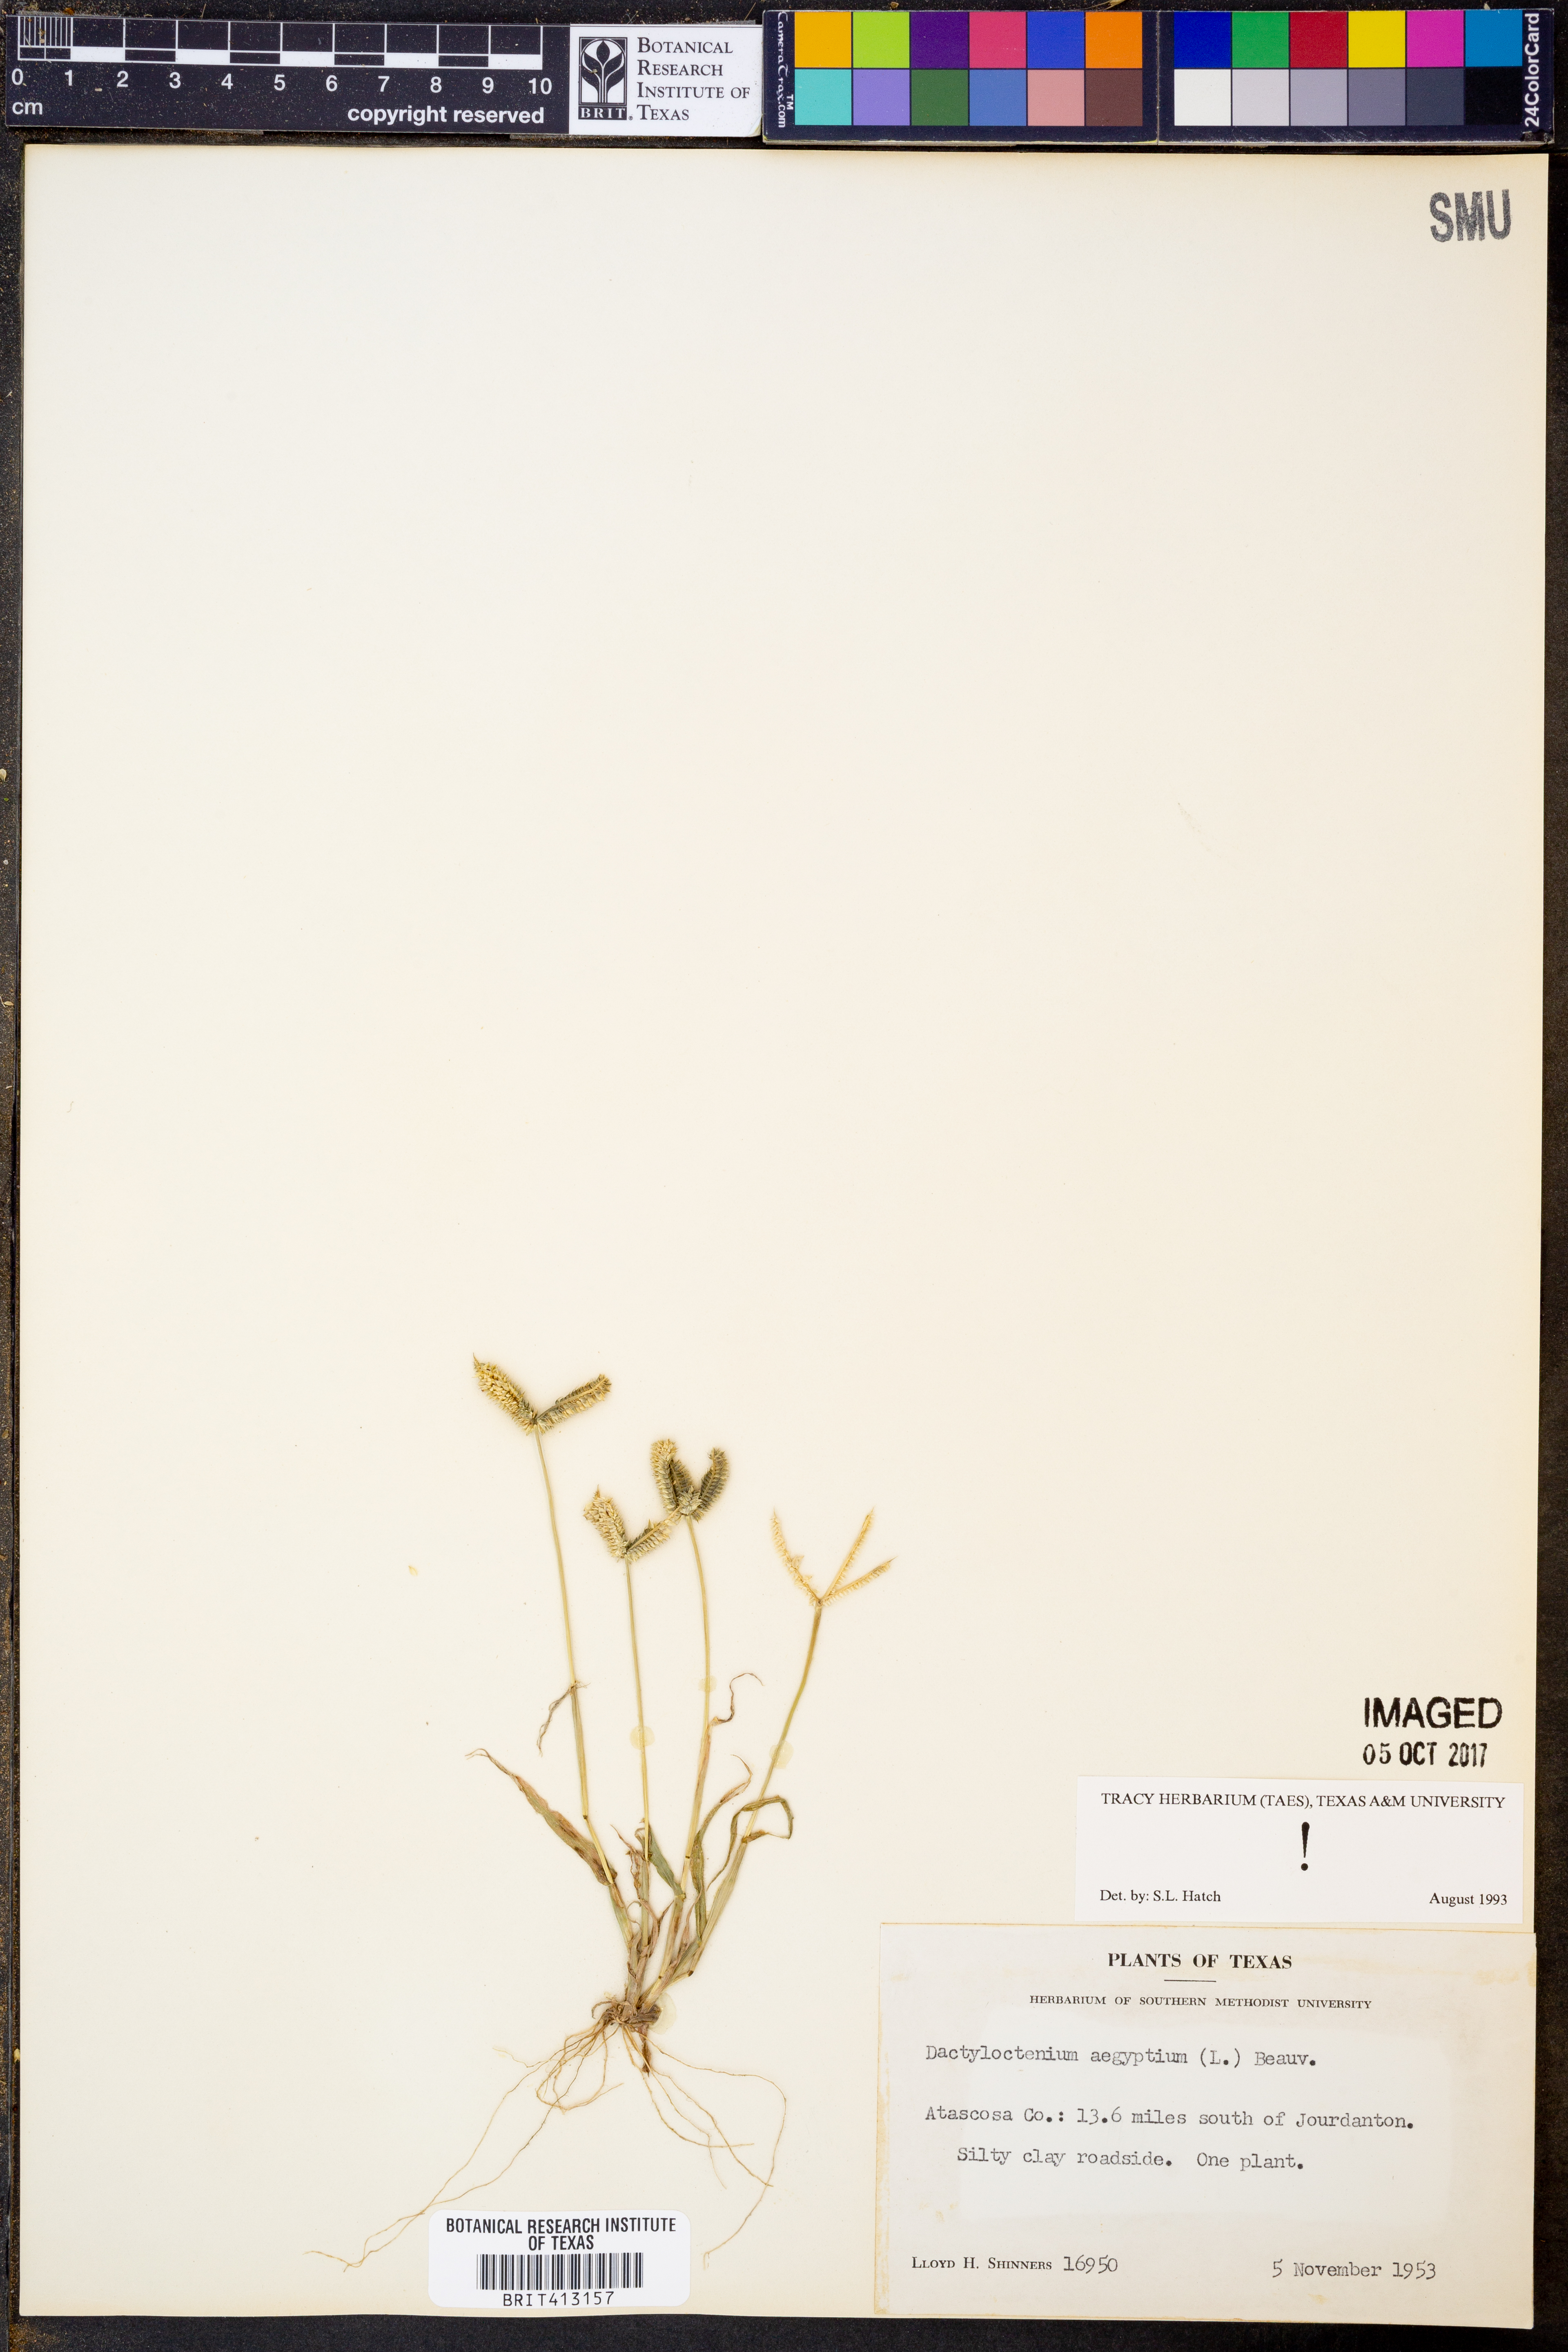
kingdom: Plantae
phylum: Tracheophyta
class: Liliopsida
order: Poales
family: Poaceae
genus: Dactyloctenium
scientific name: Dactyloctenium aegyptium
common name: Egyptian grass
